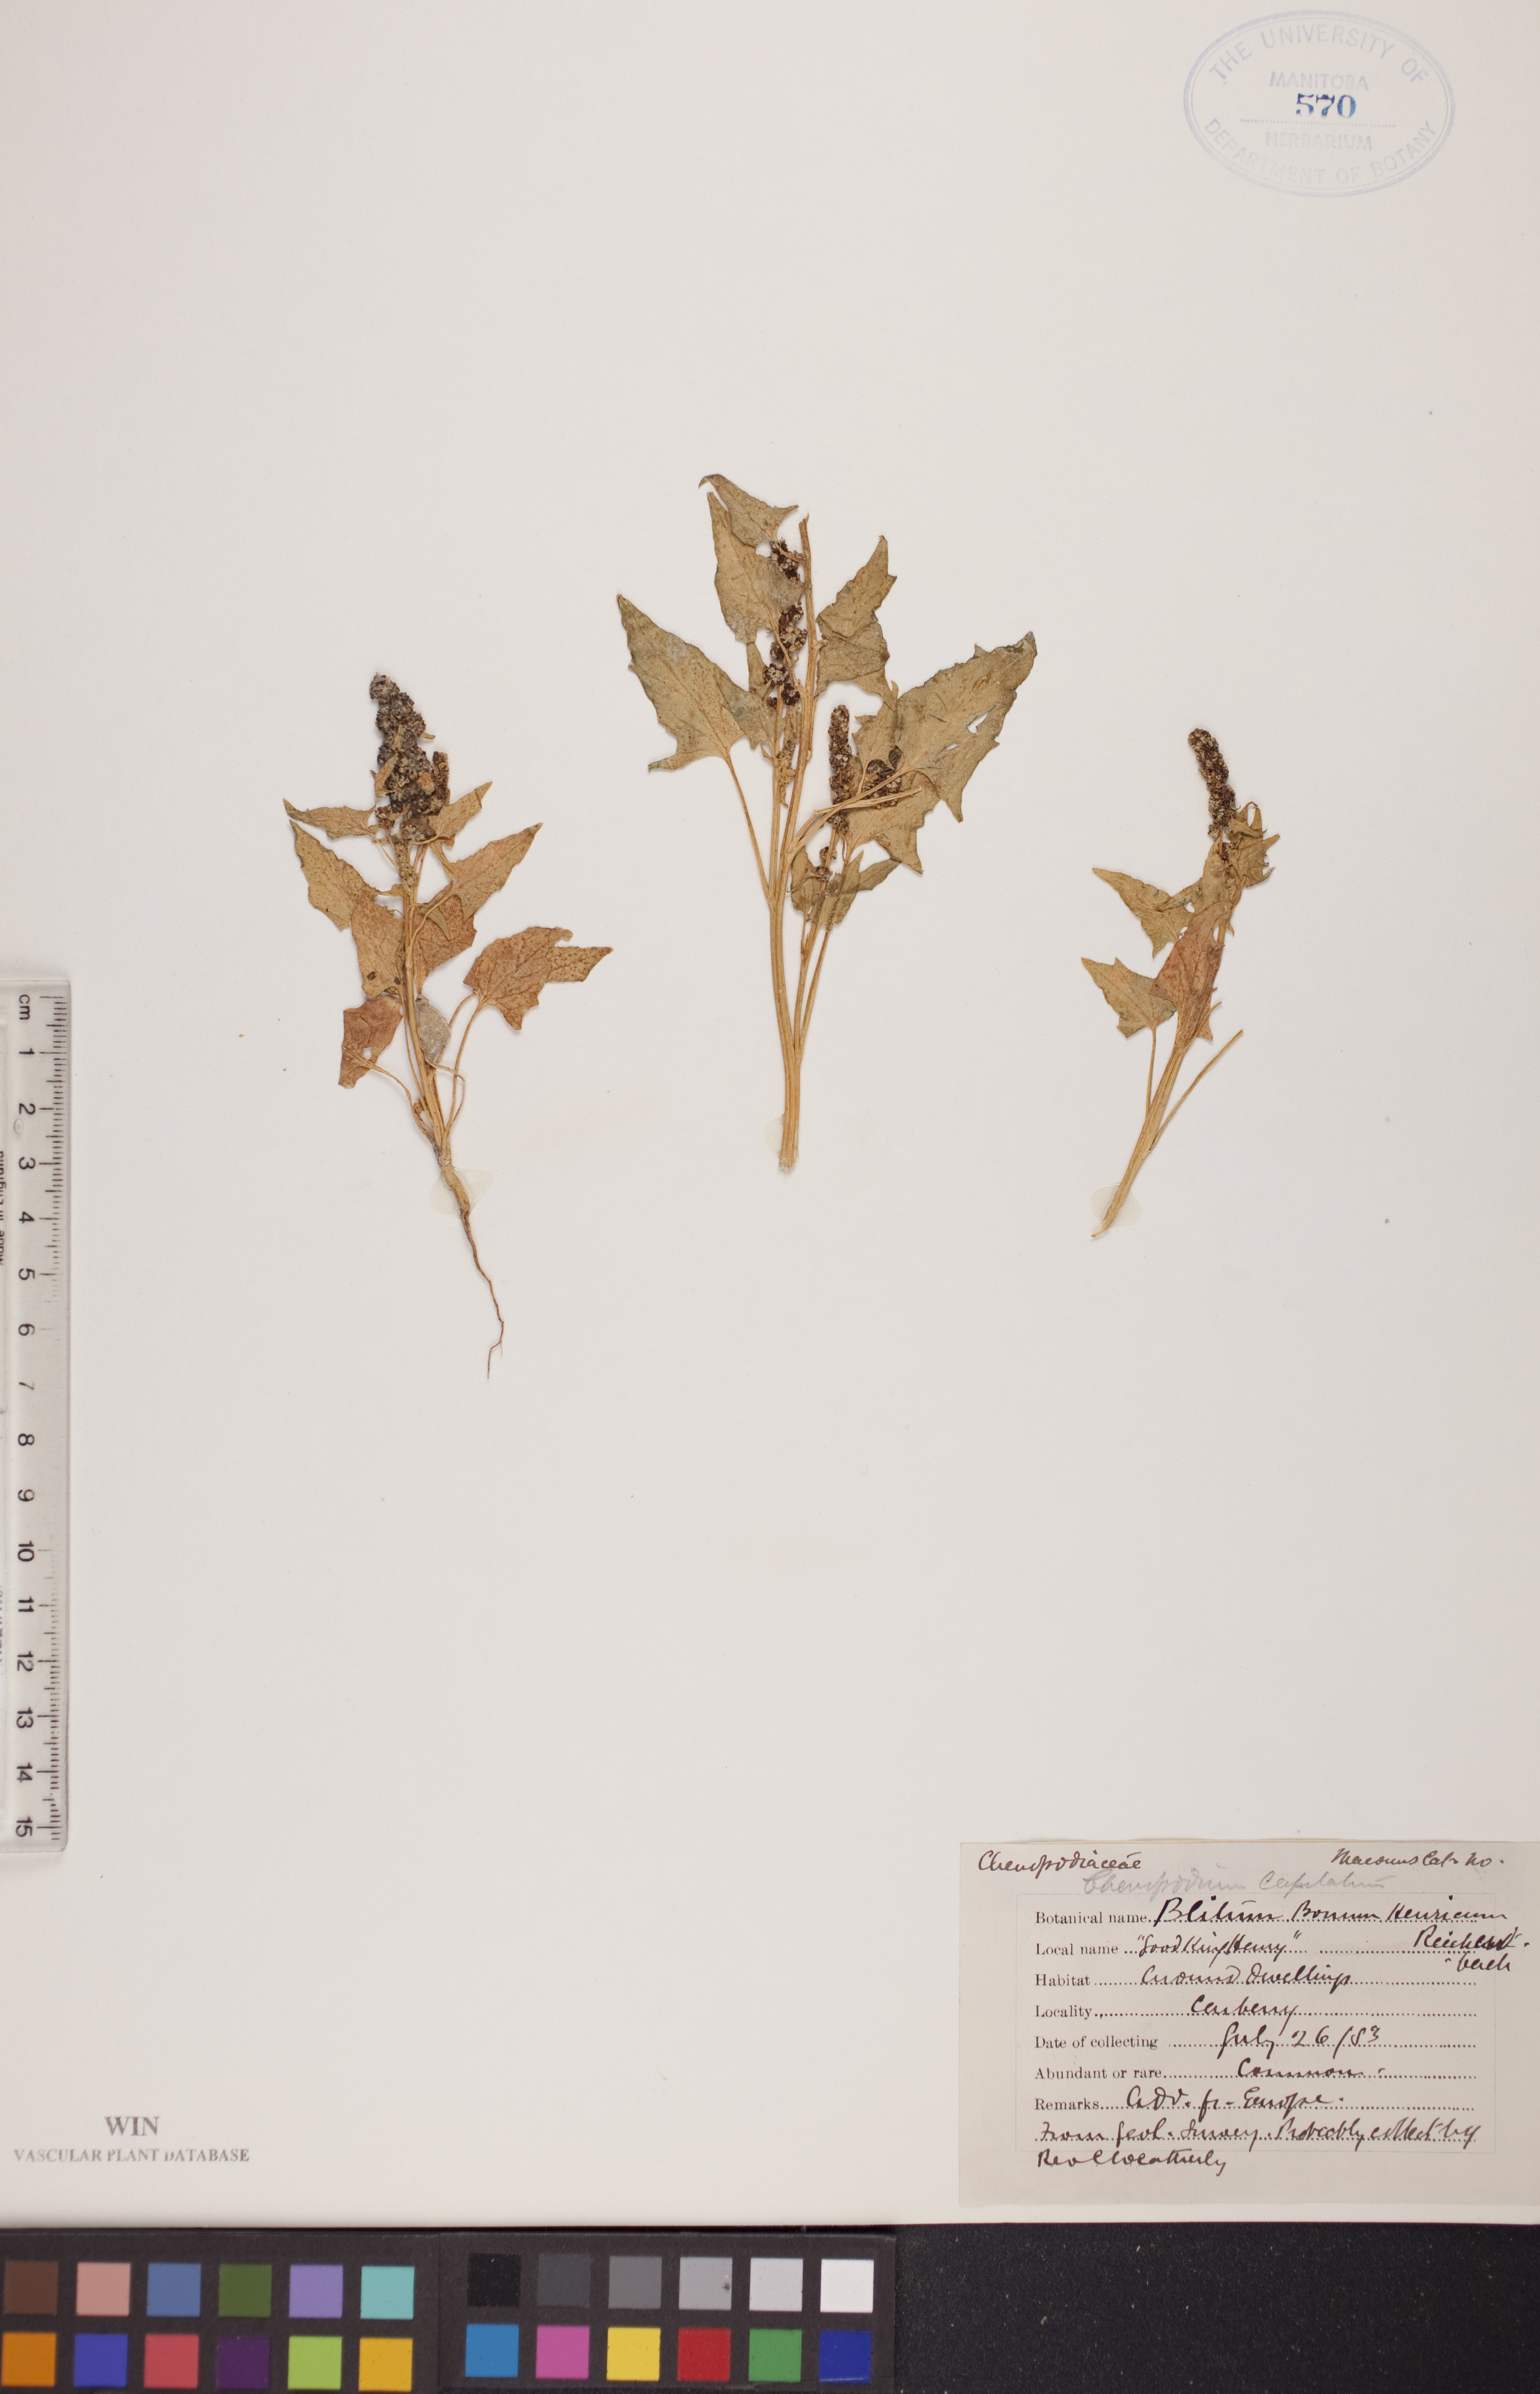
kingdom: Plantae
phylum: Tracheophyta
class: Magnoliopsida
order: Caryophyllales
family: Amaranthaceae
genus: Blitum
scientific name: Blitum capitatum
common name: Strawberry-blight
